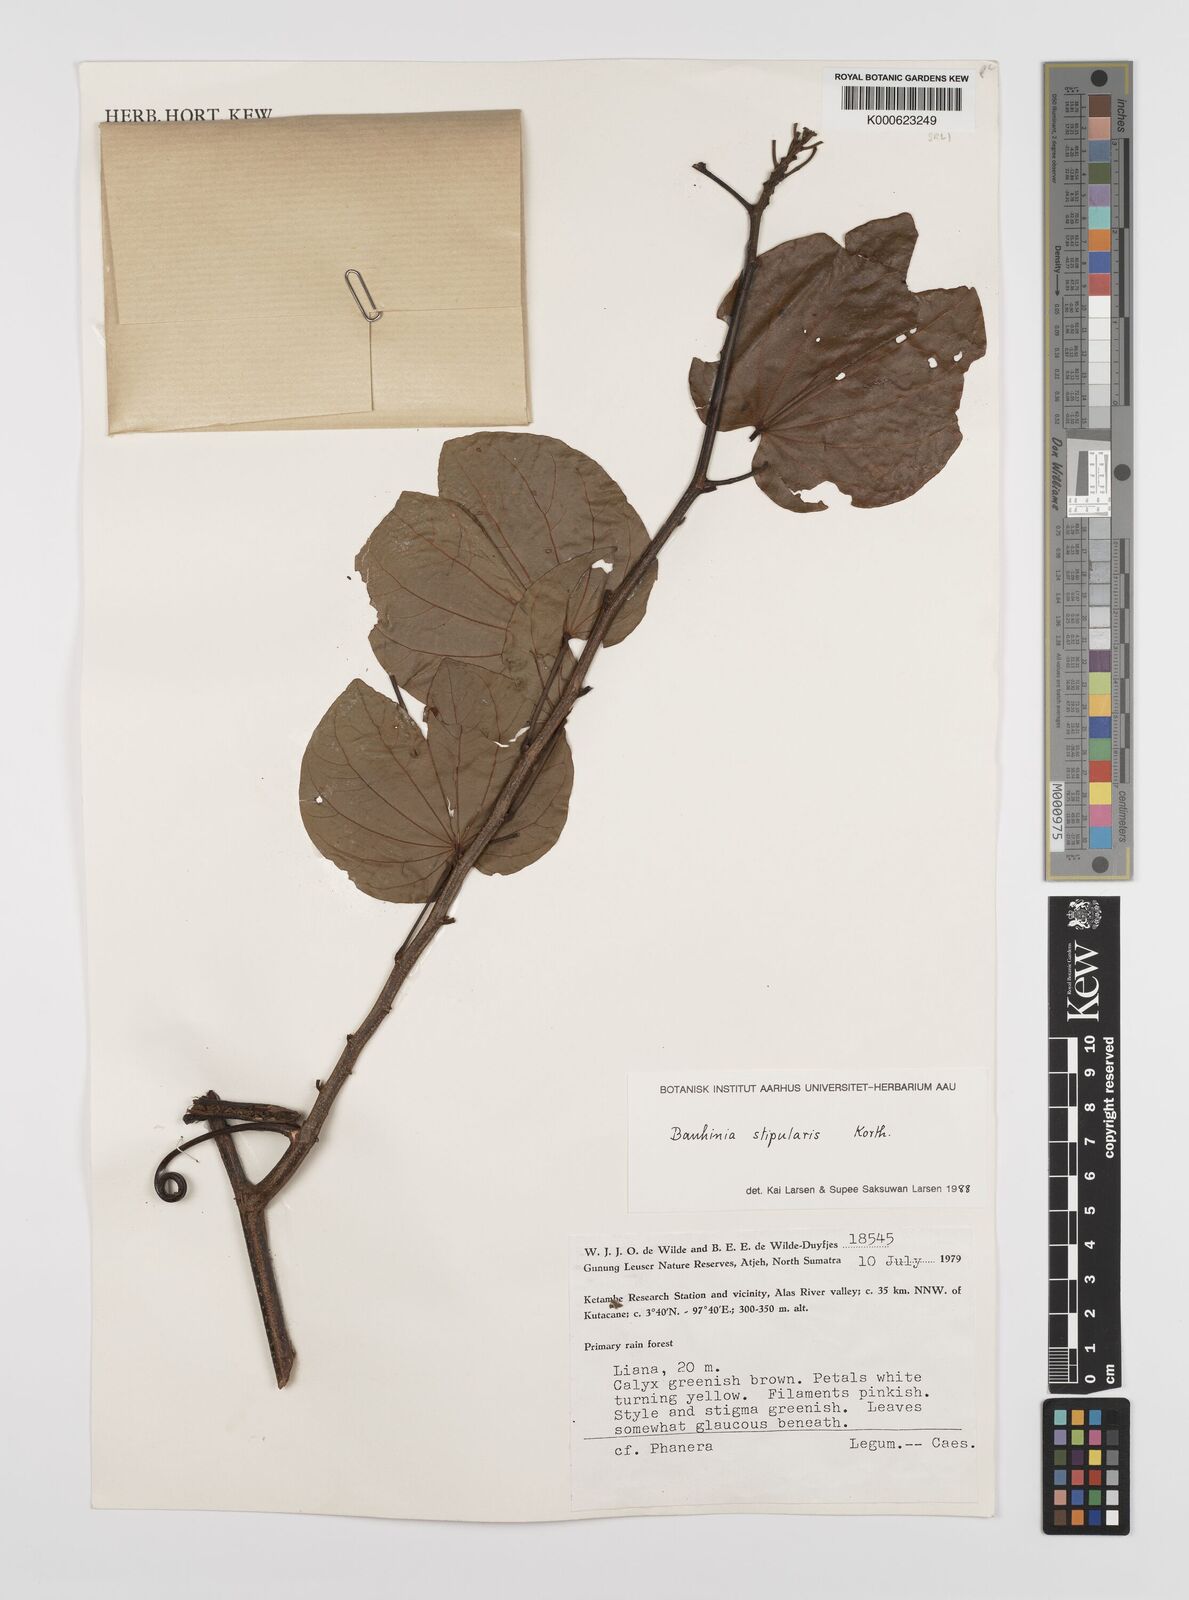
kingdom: Plantae
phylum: Tracheophyta
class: Magnoliopsida
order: Fabales
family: Fabaceae
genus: Phanera
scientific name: Phanera stipularis
